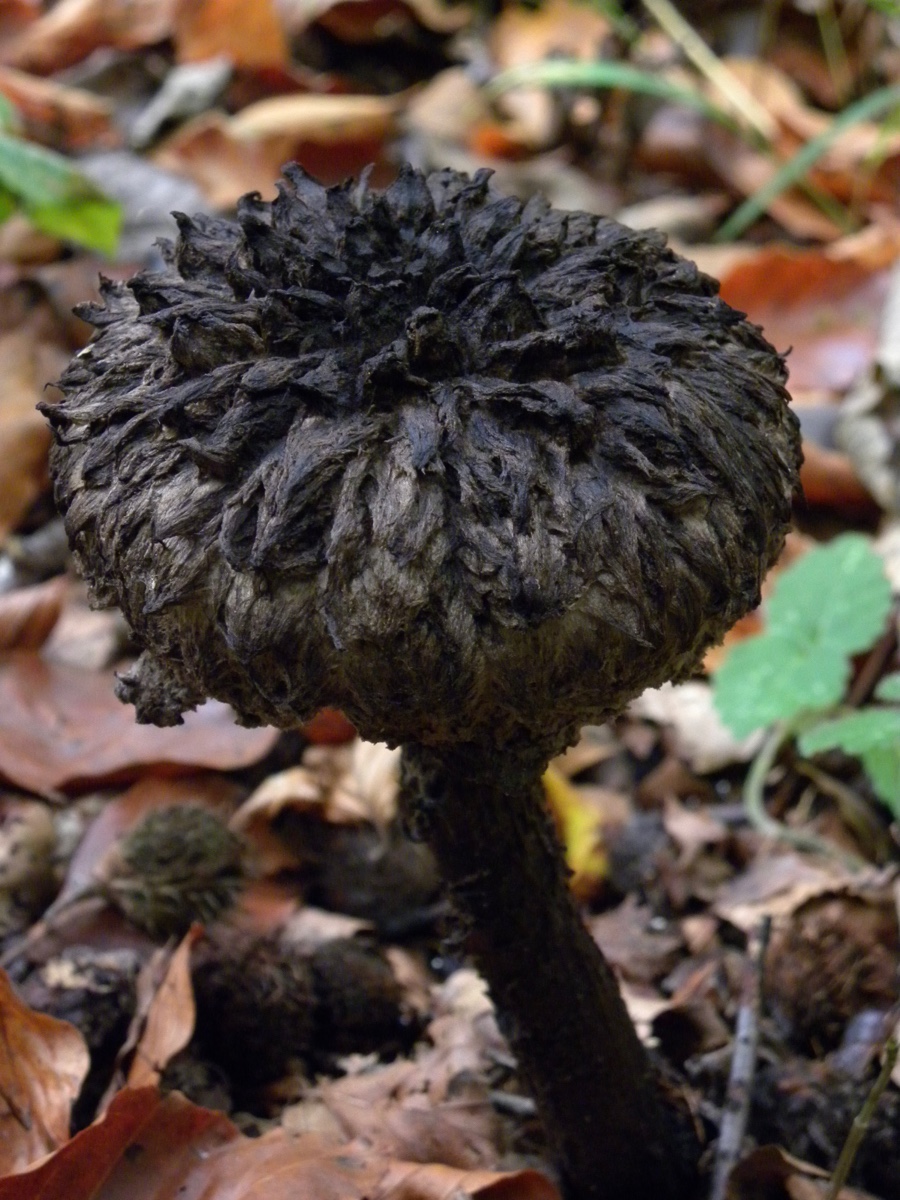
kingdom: Fungi
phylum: Basidiomycota
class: Agaricomycetes
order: Boletales
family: Boletaceae
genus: Strobilomyces
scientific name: Strobilomyces strobilaceus
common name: koglerørhat
